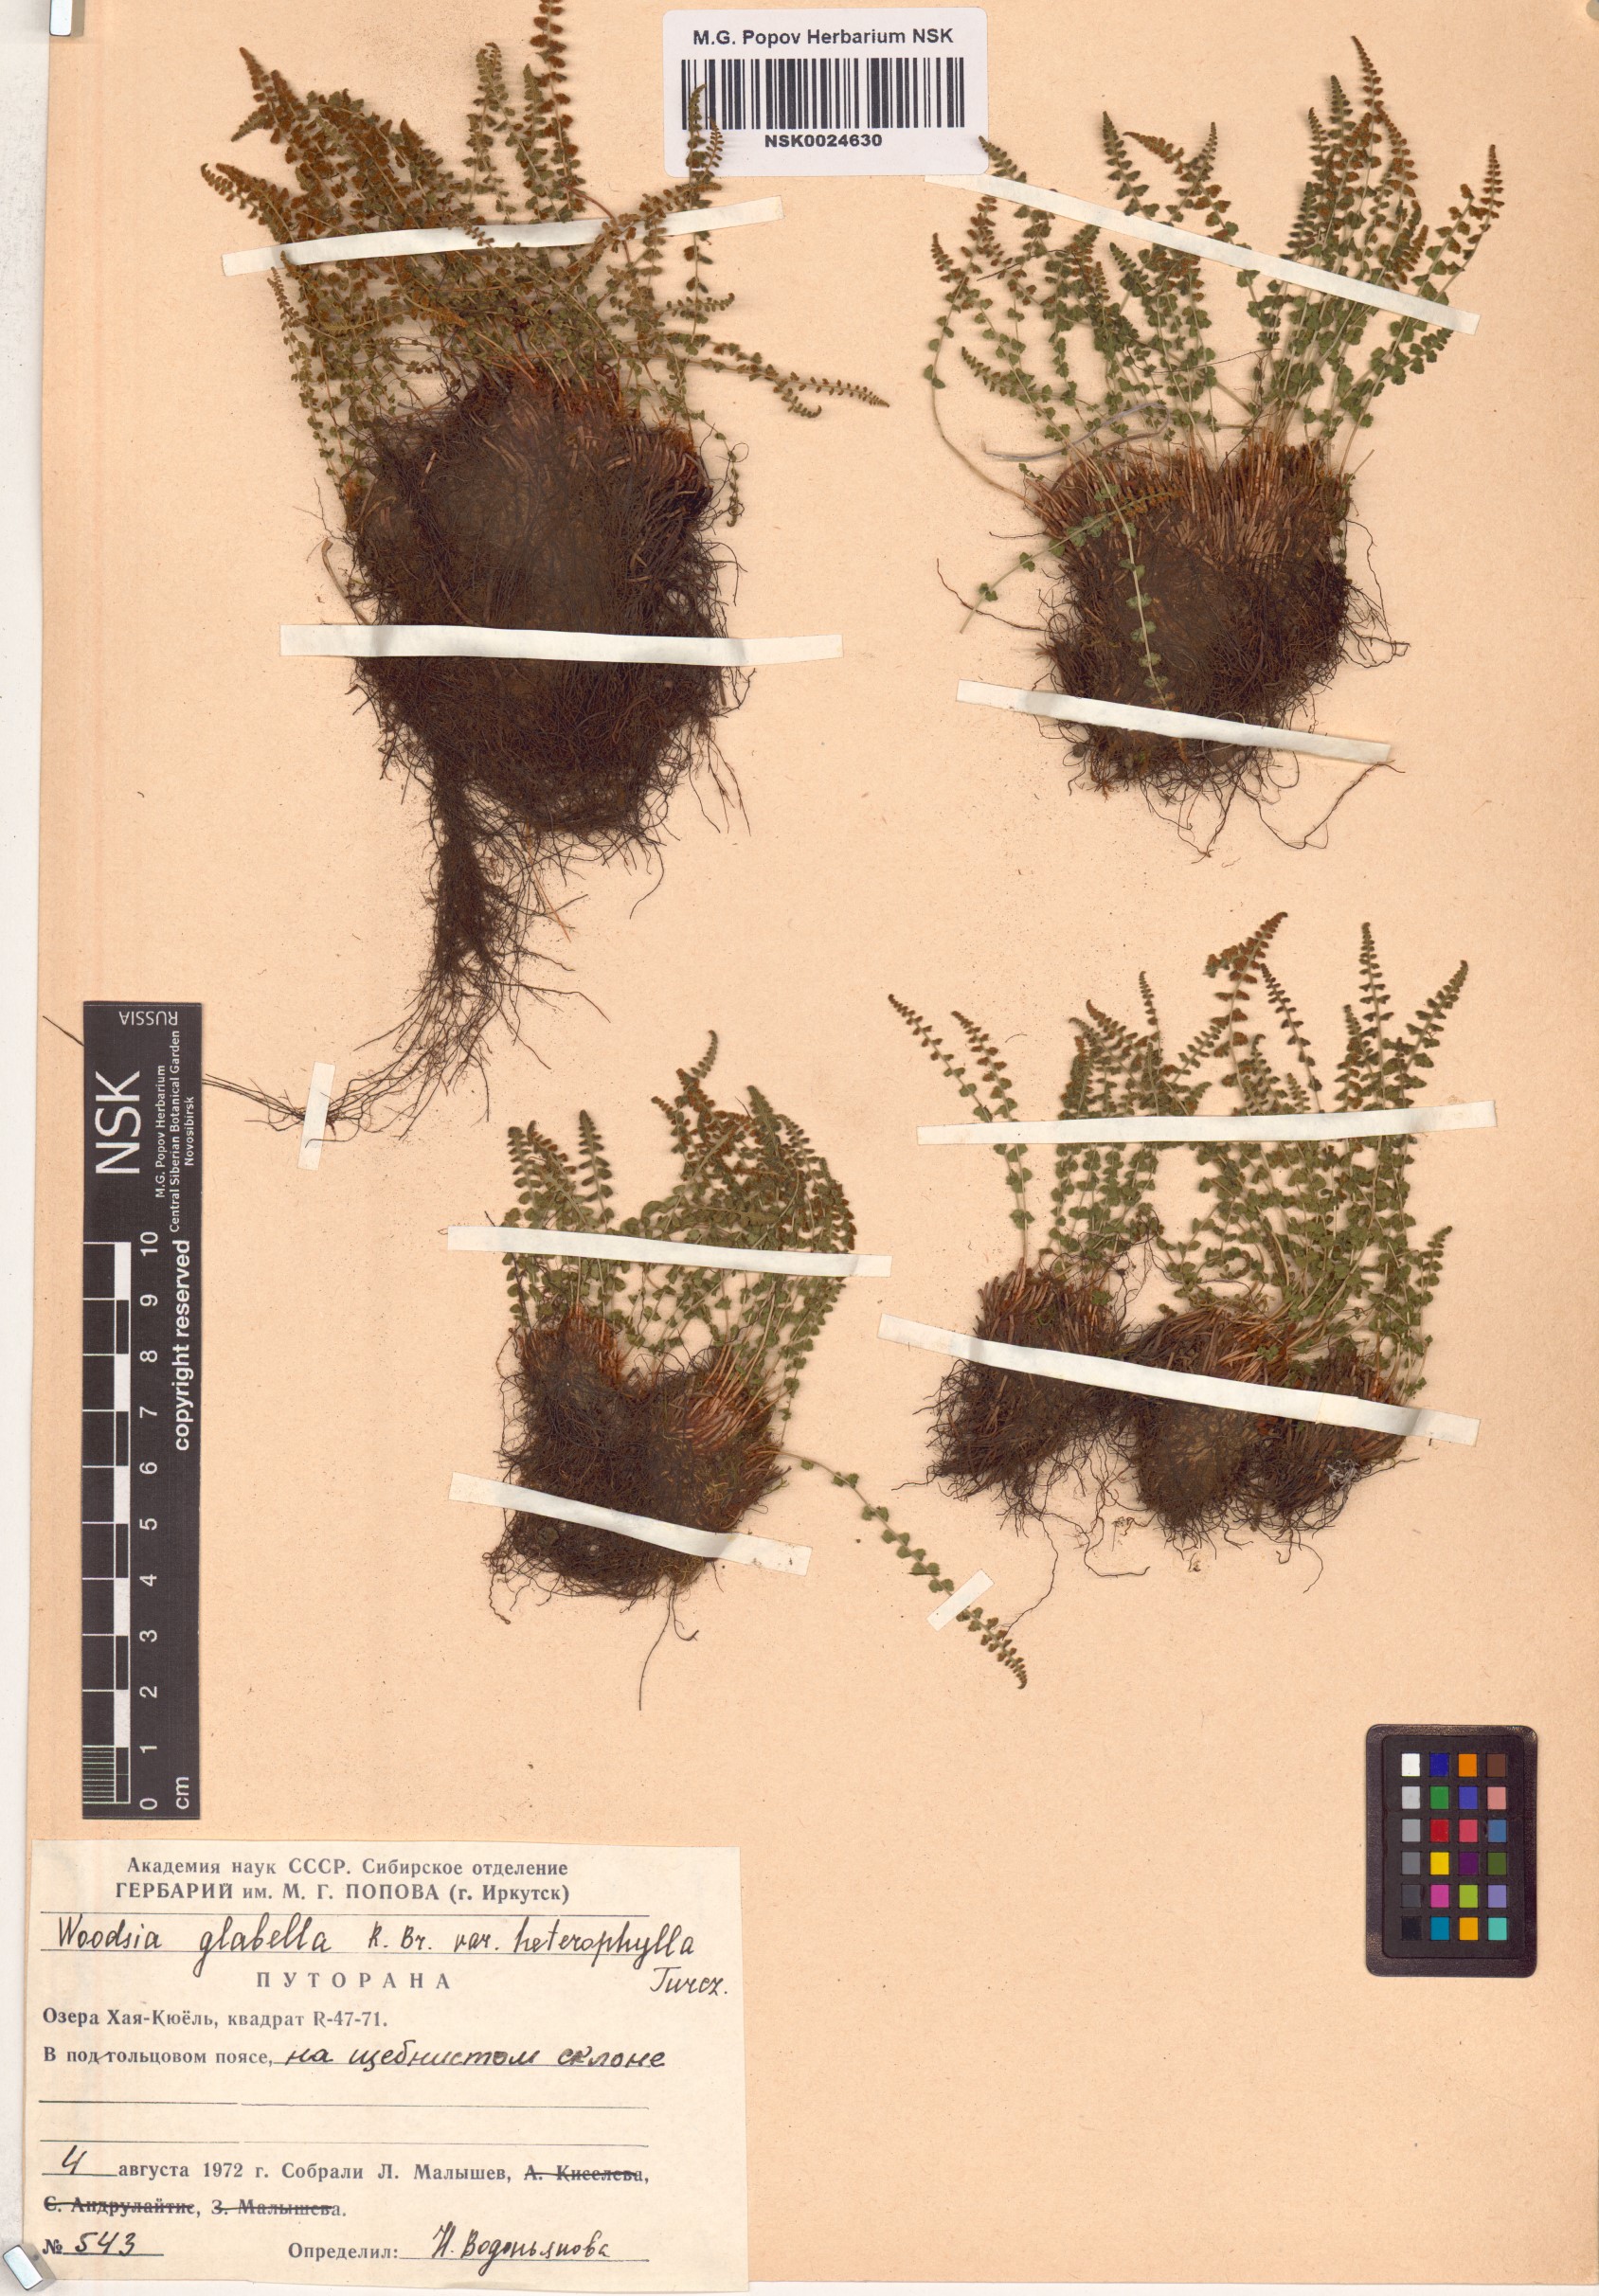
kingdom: Plantae
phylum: Tracheophyta
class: Polypodiopsida
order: Polypodiales
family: Woodsiaceae
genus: Woodsia
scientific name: Woodsia pulchella
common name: Graceful woodsia
